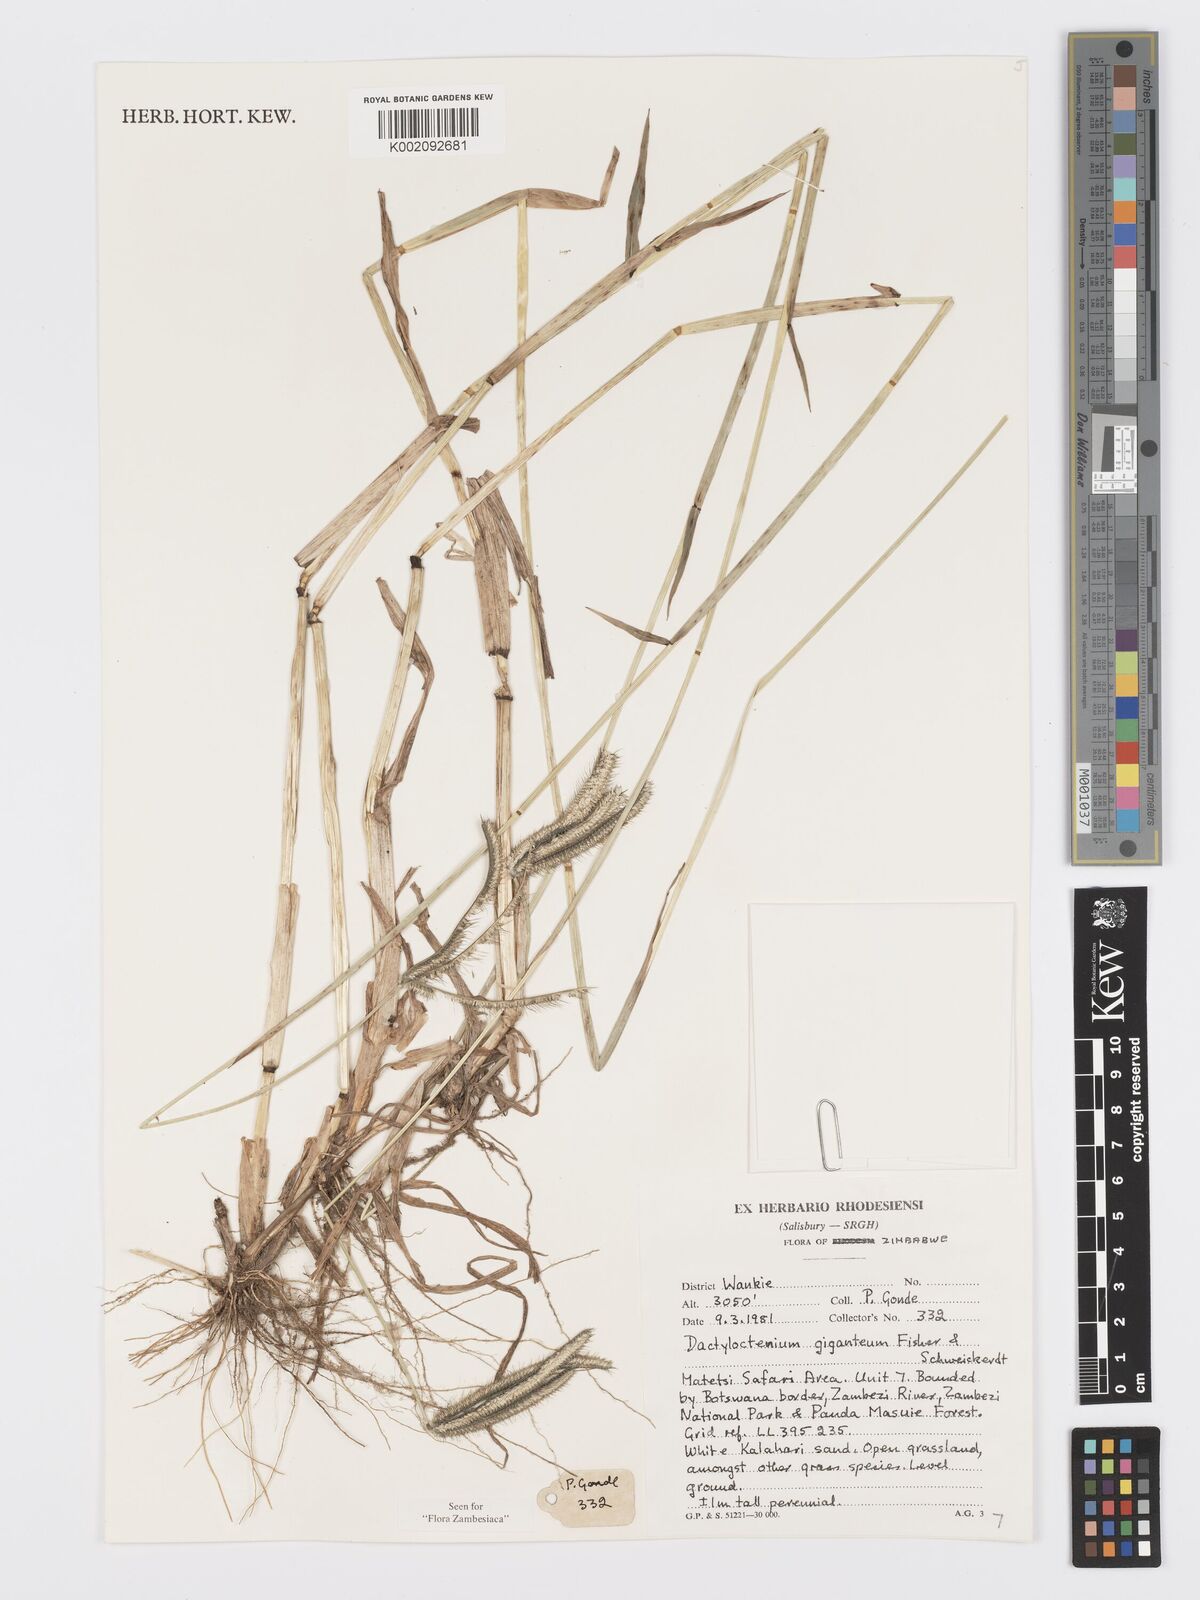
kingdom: Plantae
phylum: Tracheophyta
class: Liliopsida
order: Poales
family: Poaceae
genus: Dactyloctenium
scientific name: Dactyloctenium giganteum
